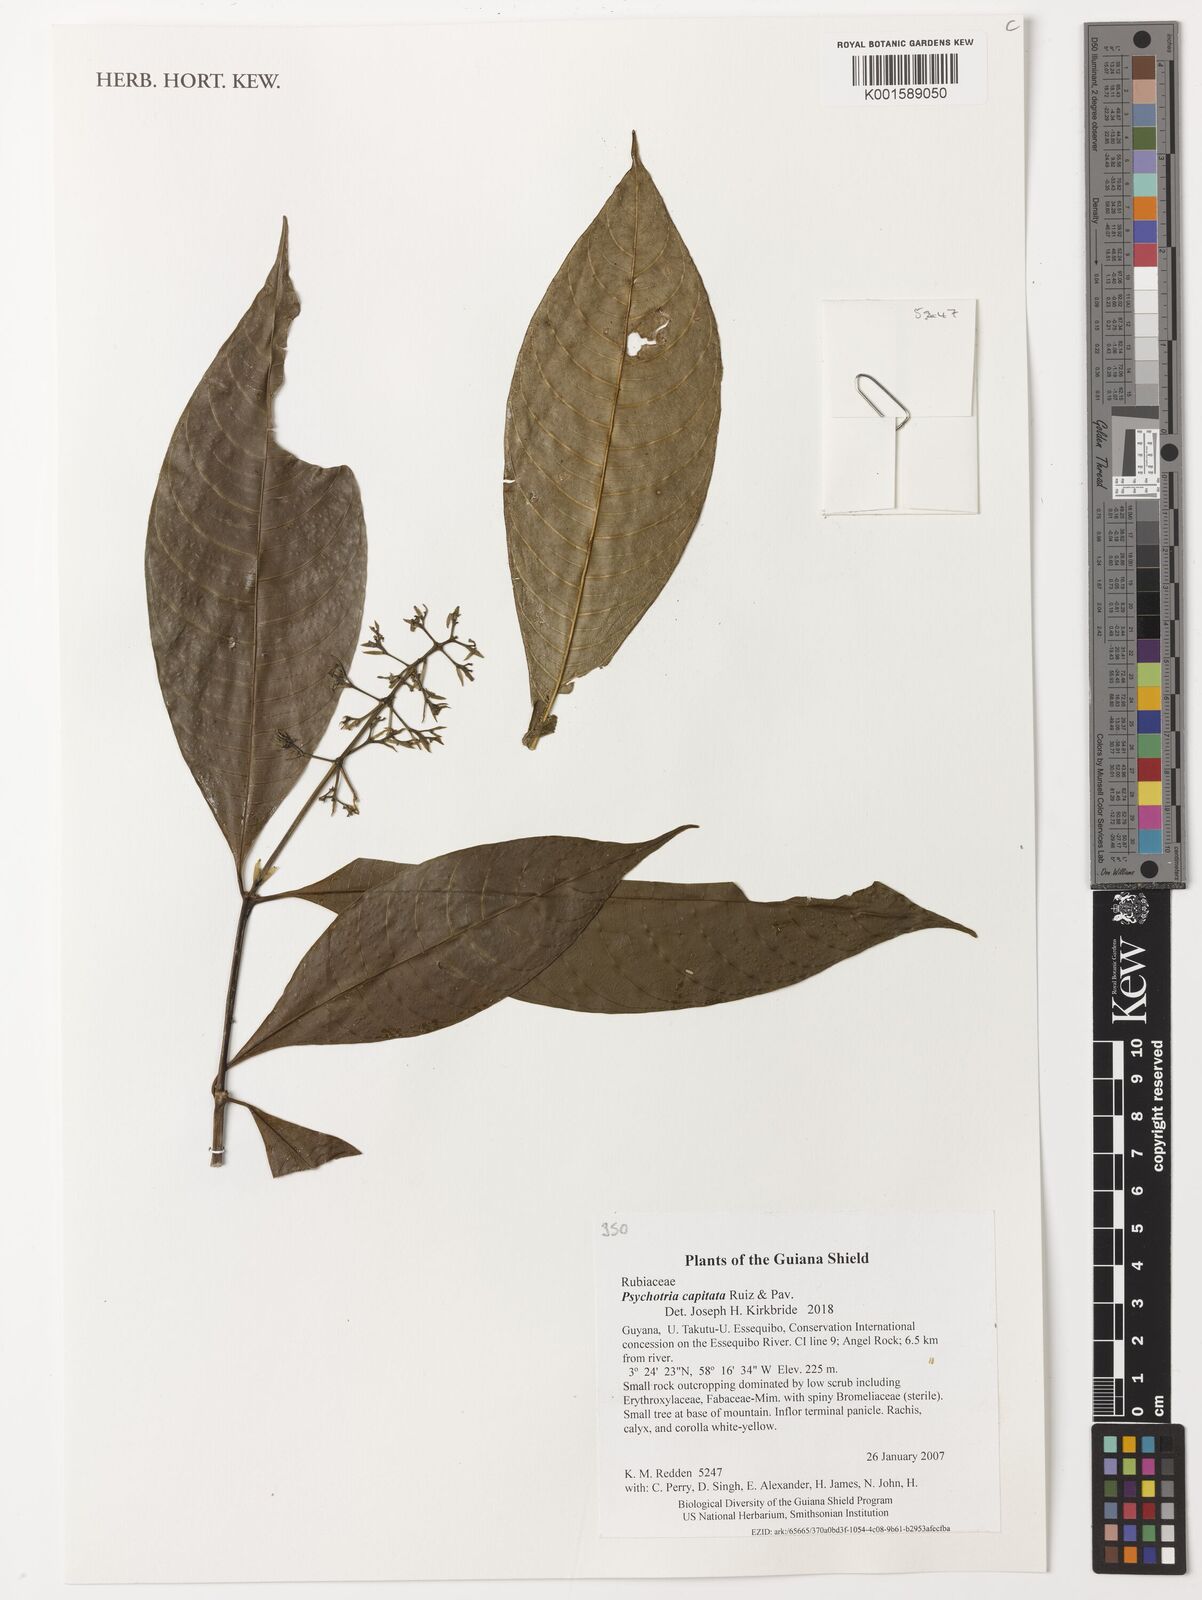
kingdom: Plantae
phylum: Tracheophyta
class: Magnoliopsida
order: Gentianales
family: Rubiaceae
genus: Palicourea
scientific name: Palicourea violacea
